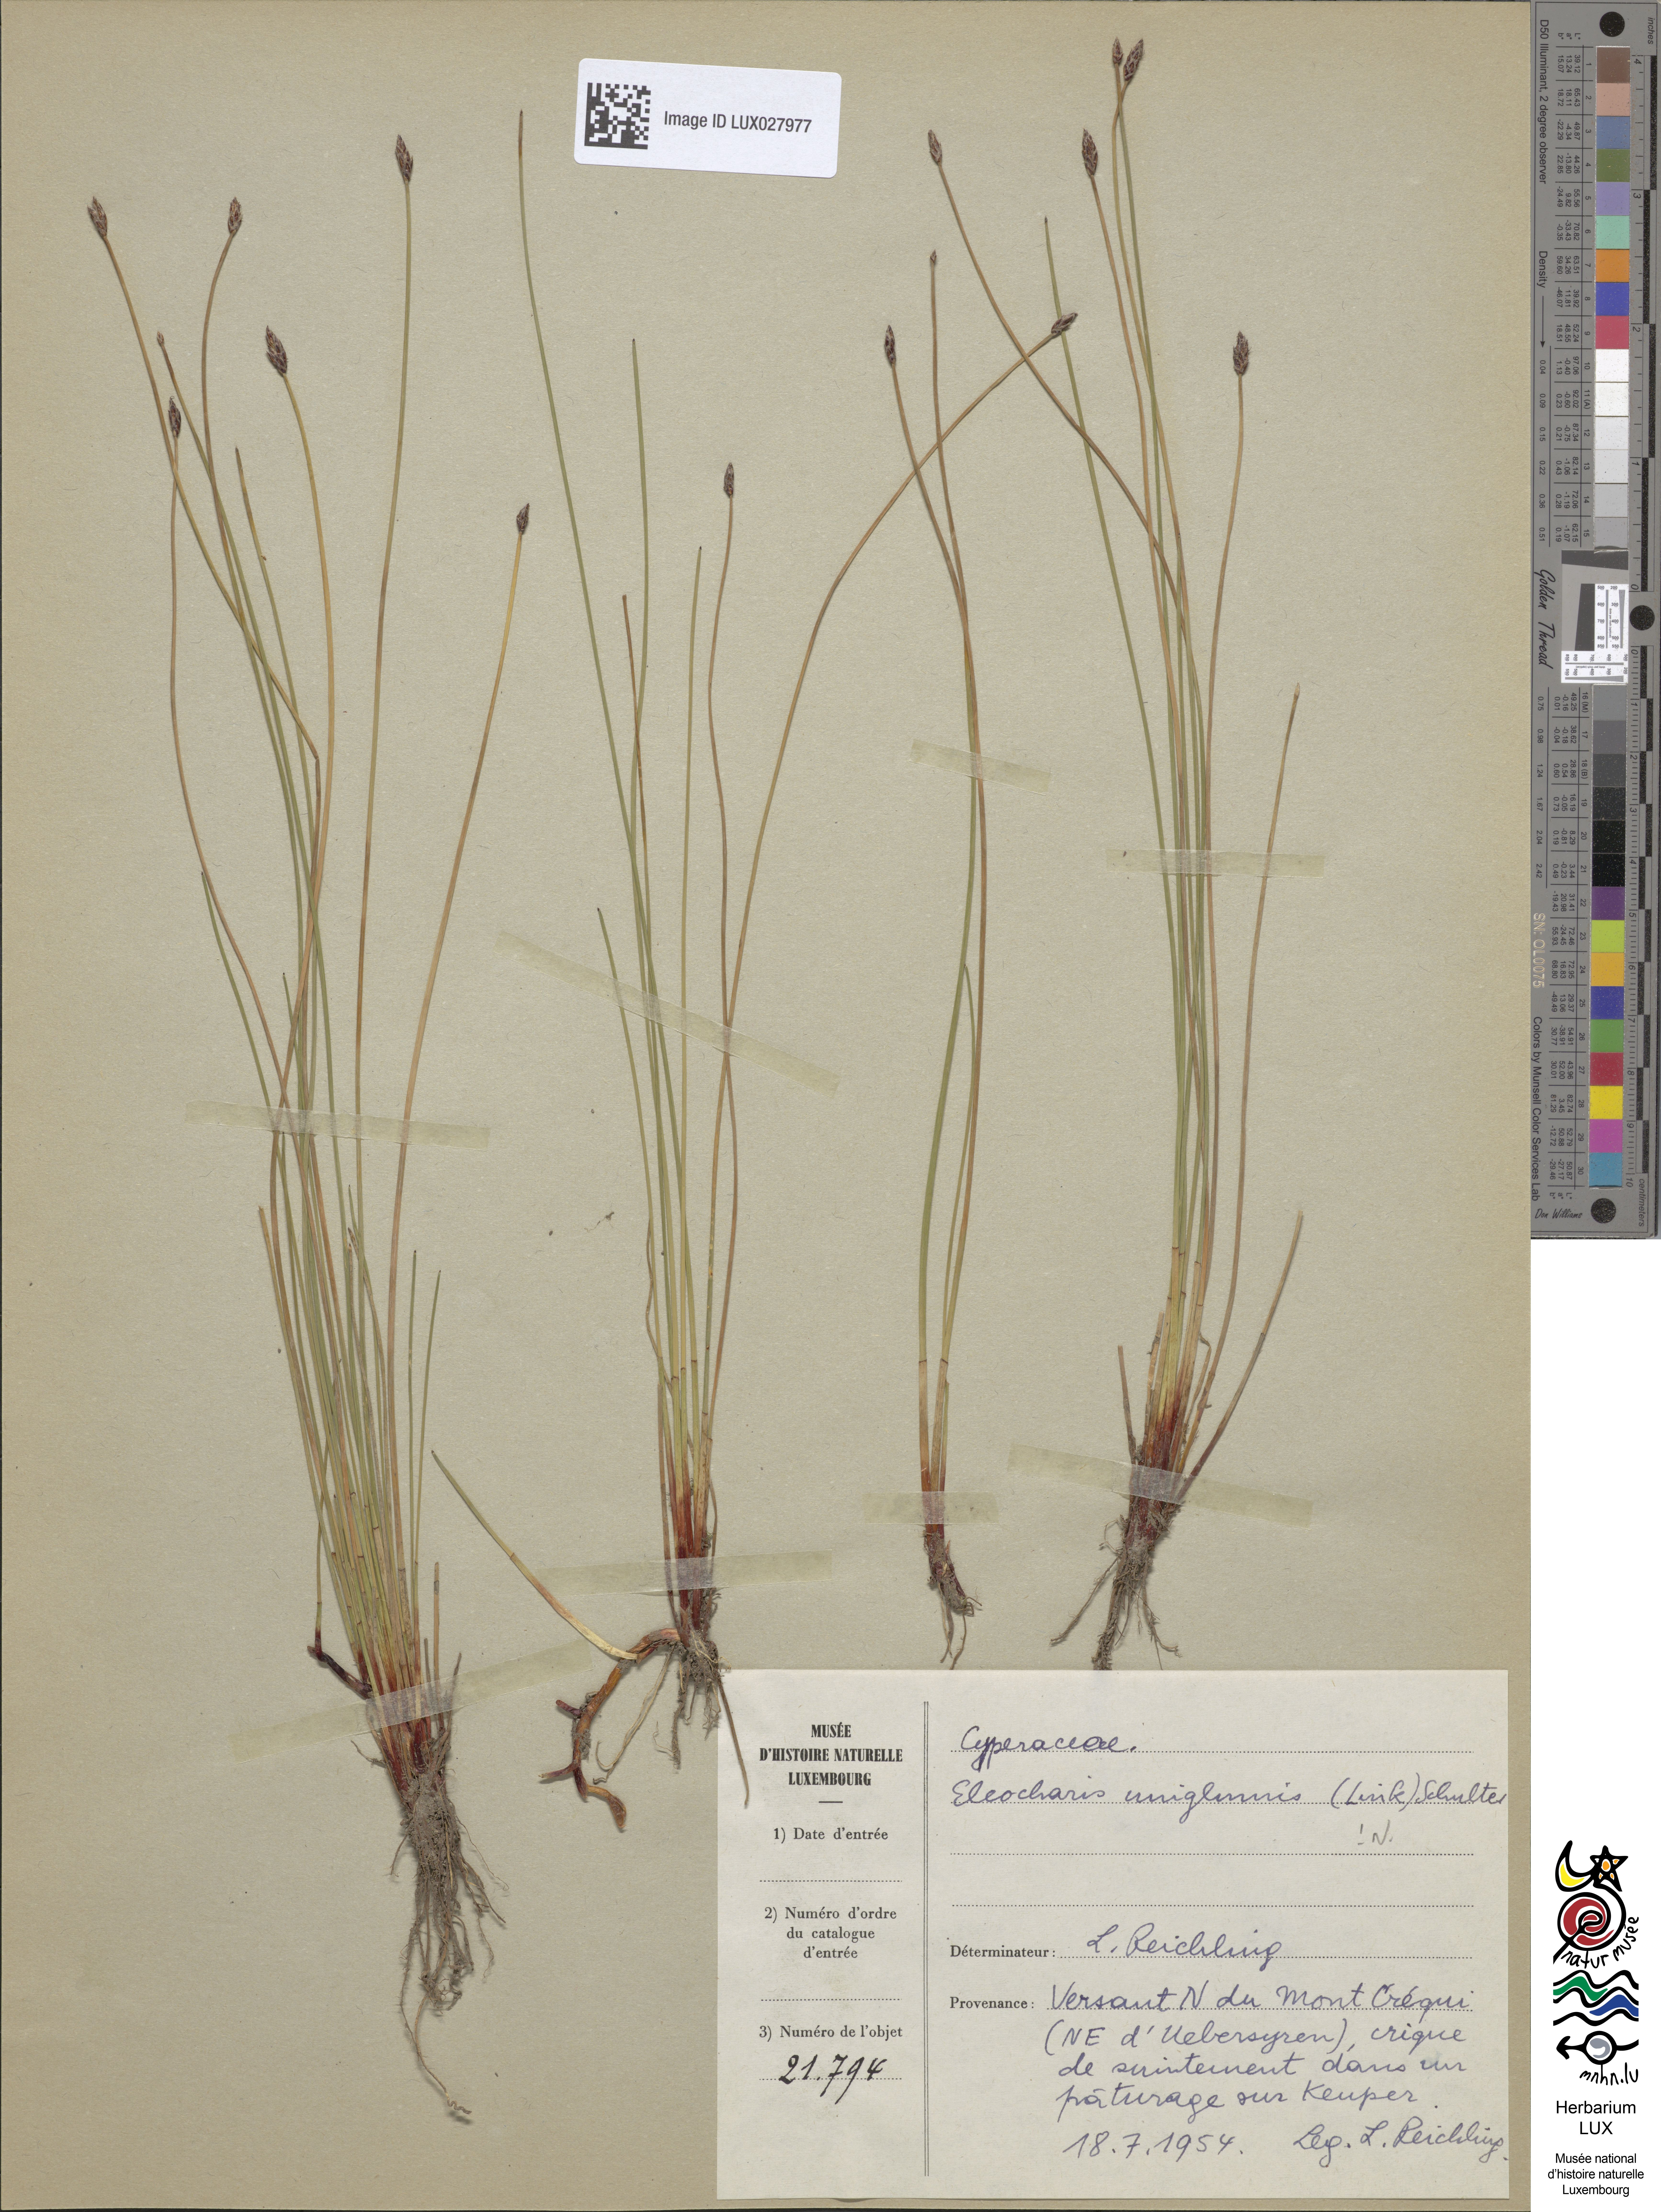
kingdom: Plantae
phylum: Tracheophyta
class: Liliopsida
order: Poales
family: Cyperaceae
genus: Eleocharis
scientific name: Eleocharis uniglumis
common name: Slender spike-rush
